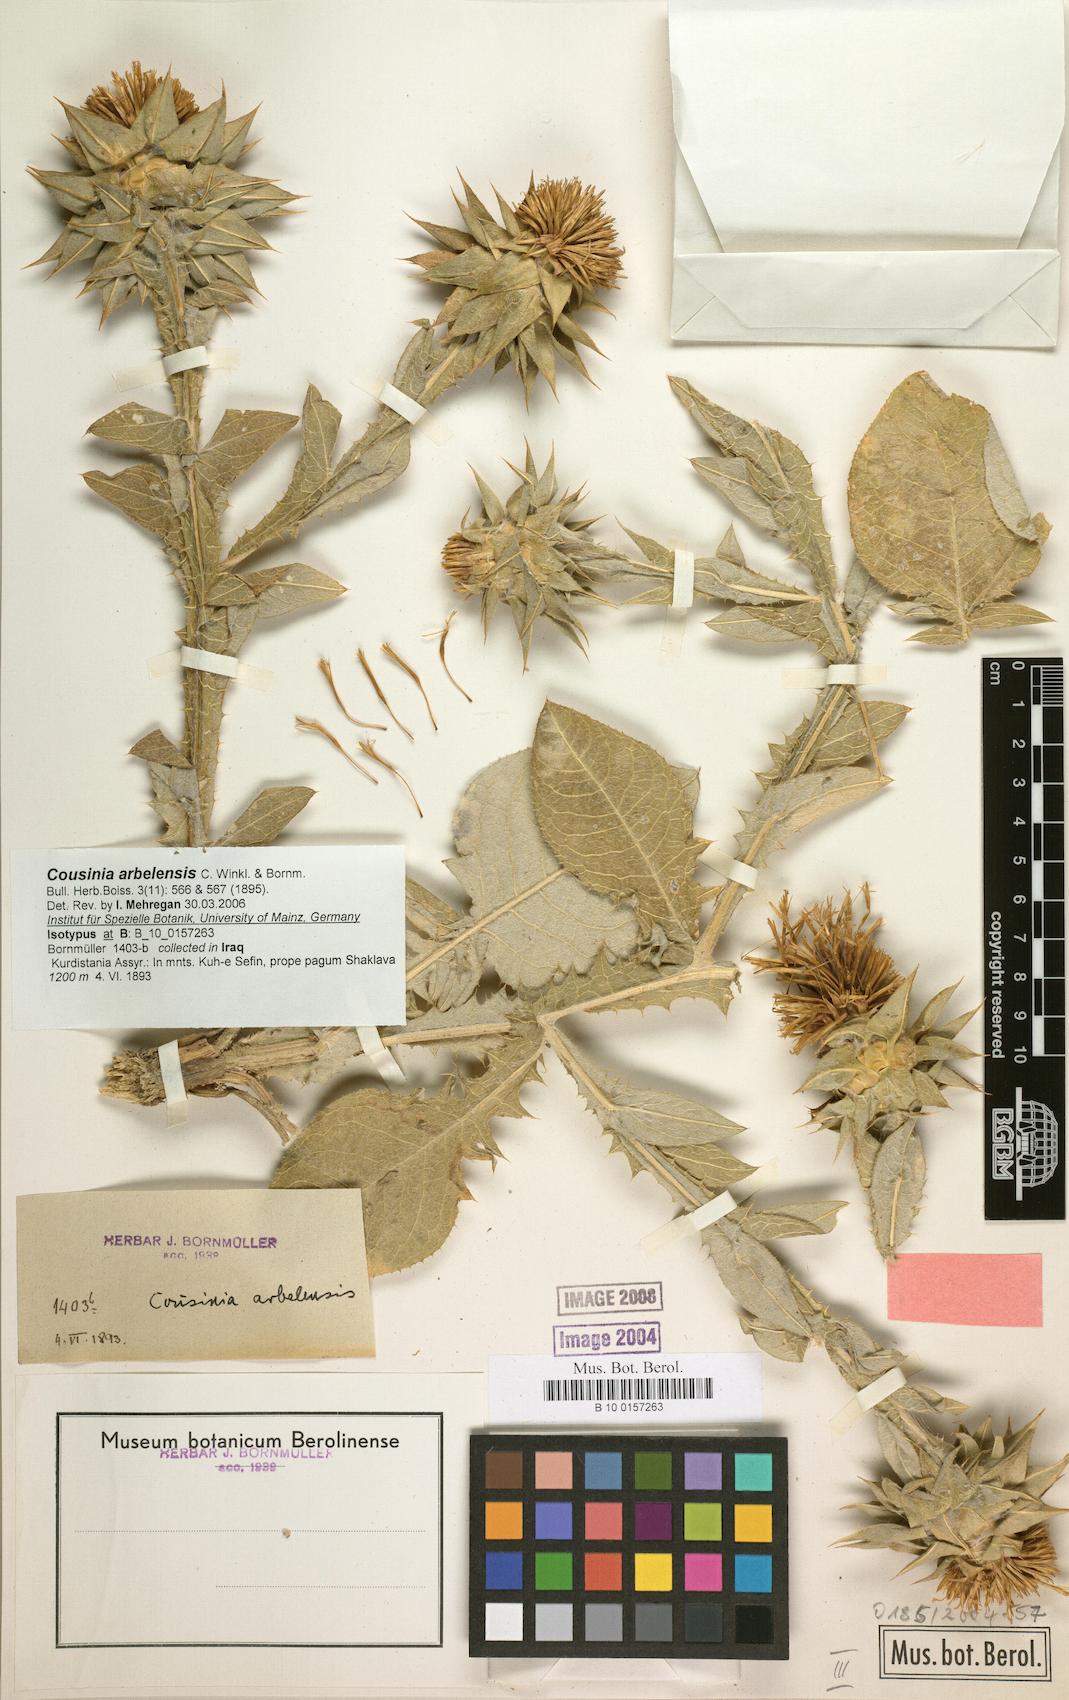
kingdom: Plantae
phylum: Tracheophyta
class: Magnoliopsida
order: Asterales
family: Asteraceae
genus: Cousinia
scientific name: Cousinia aintabensis
